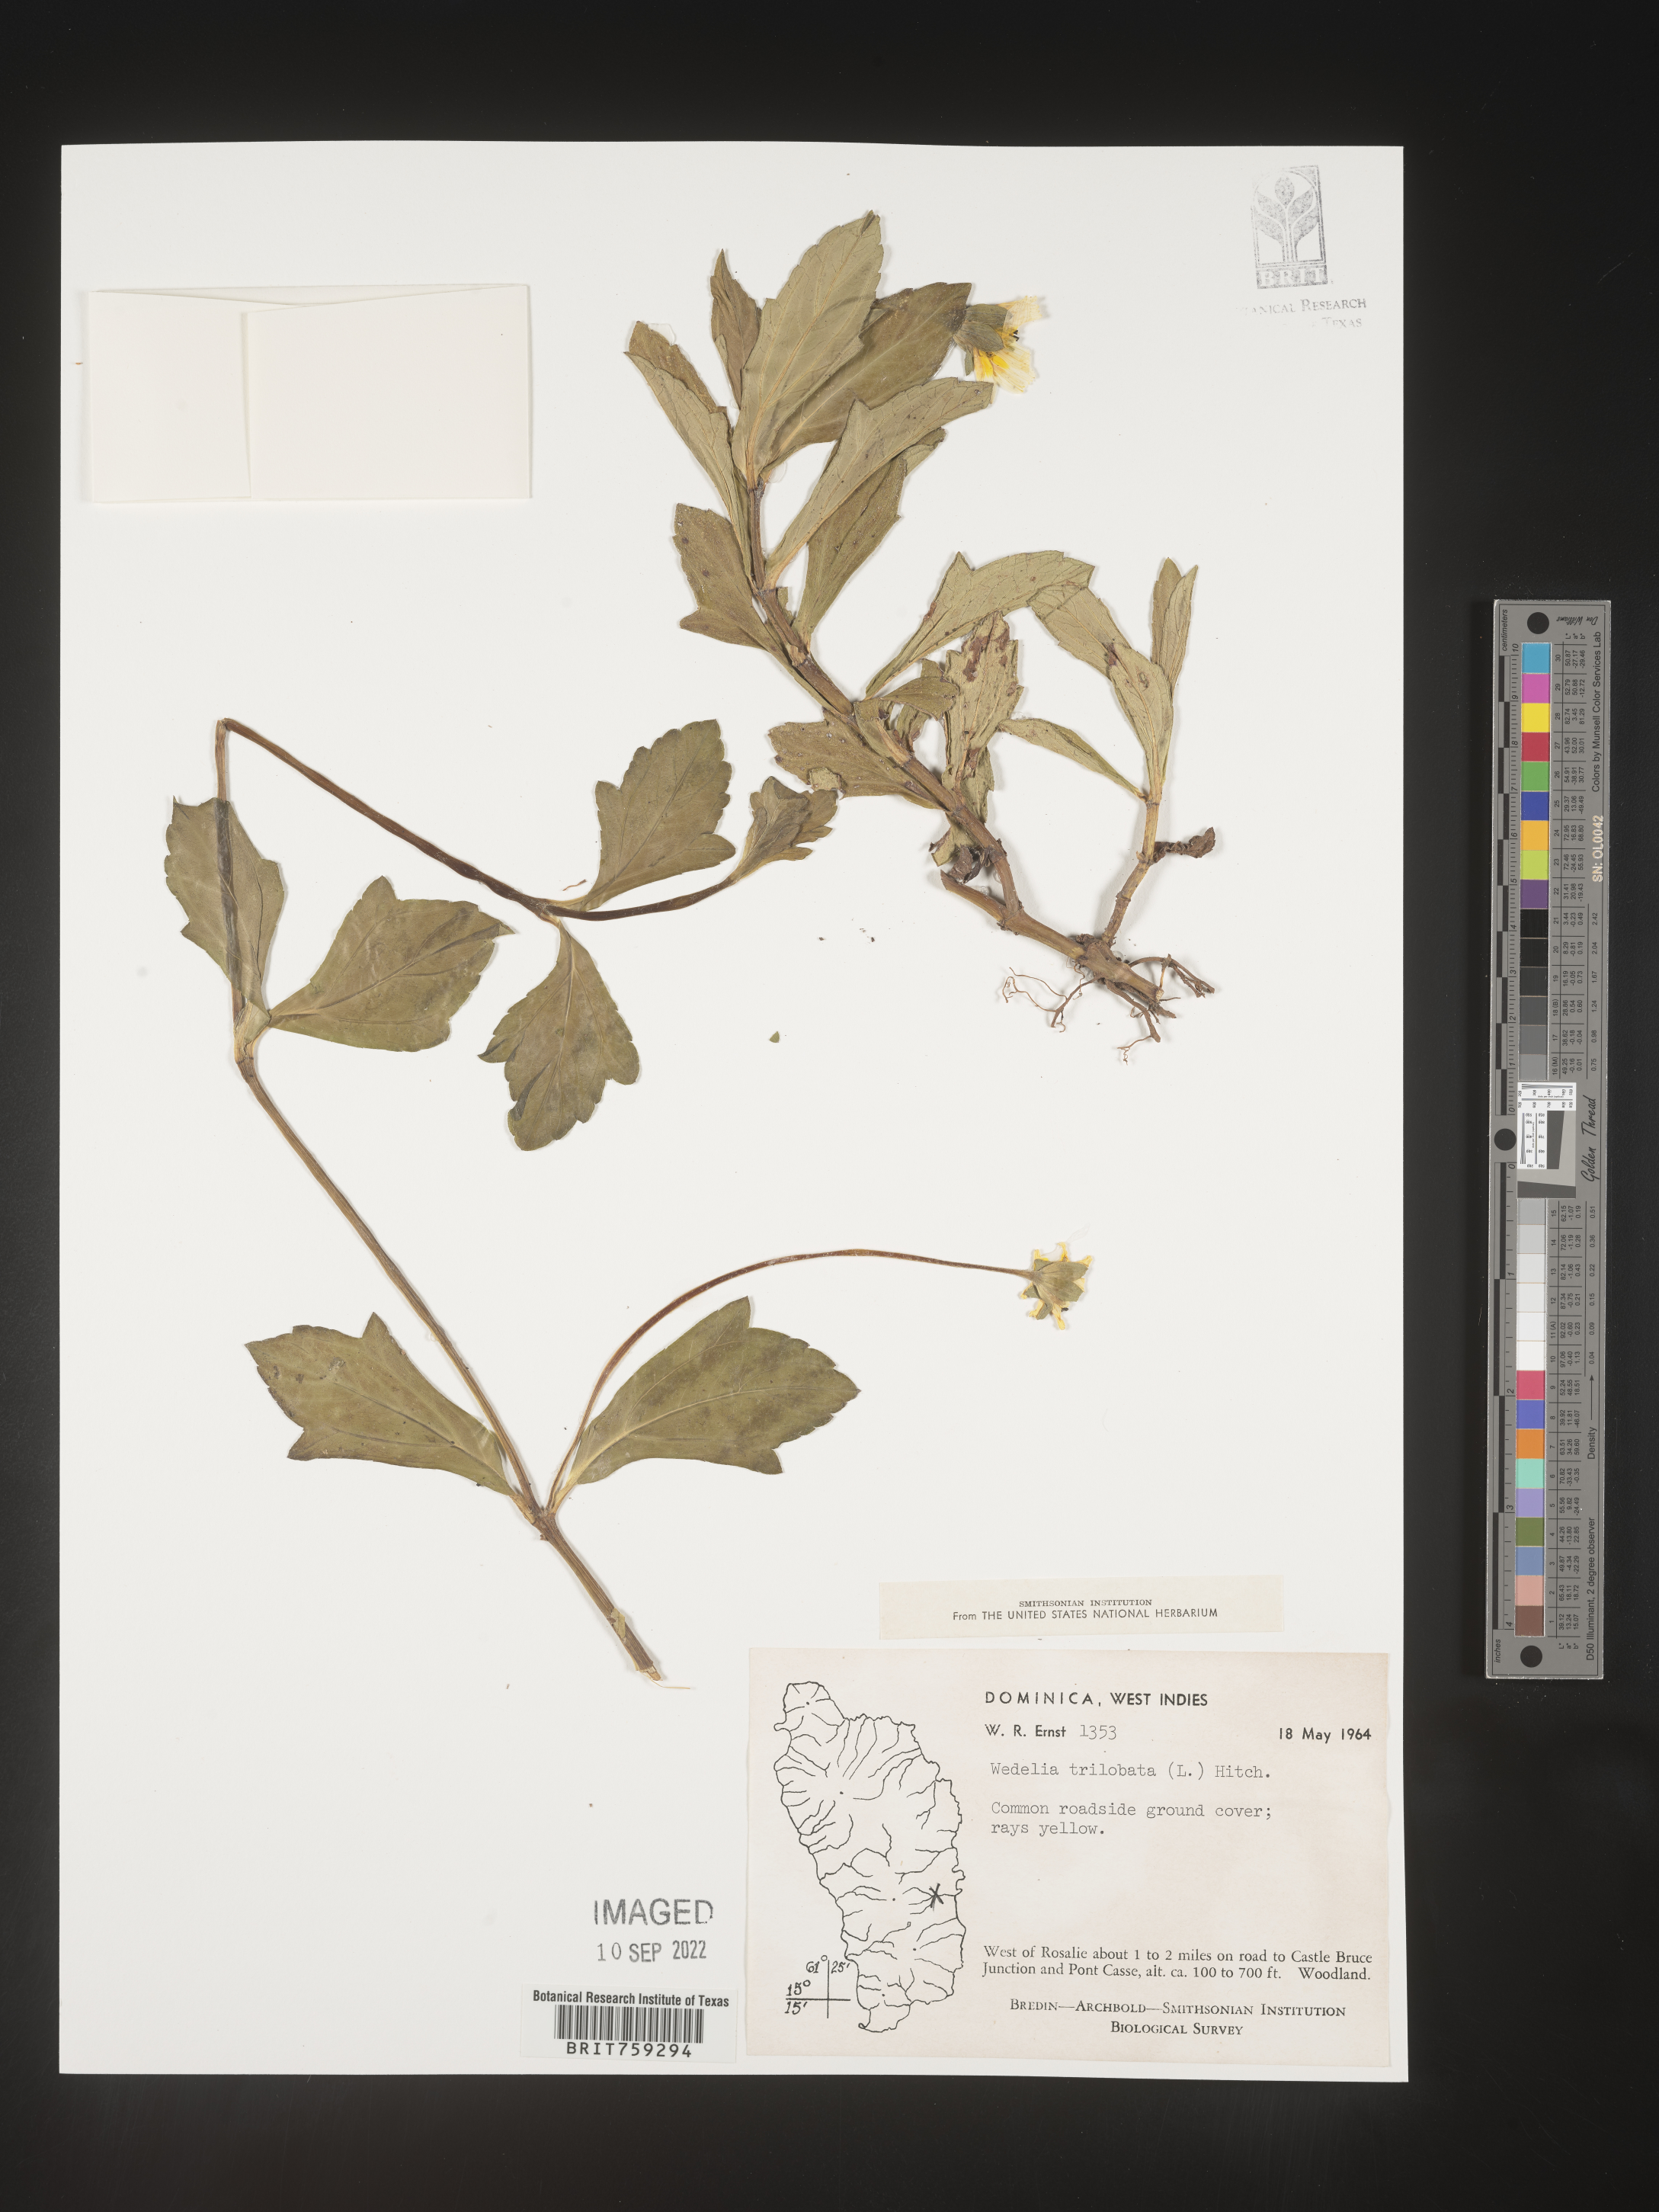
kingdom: Plantae
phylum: Tracheophyta
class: Magnoliopsida
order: Asterales
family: Asteraceae
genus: Wedelia
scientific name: Wedelia
